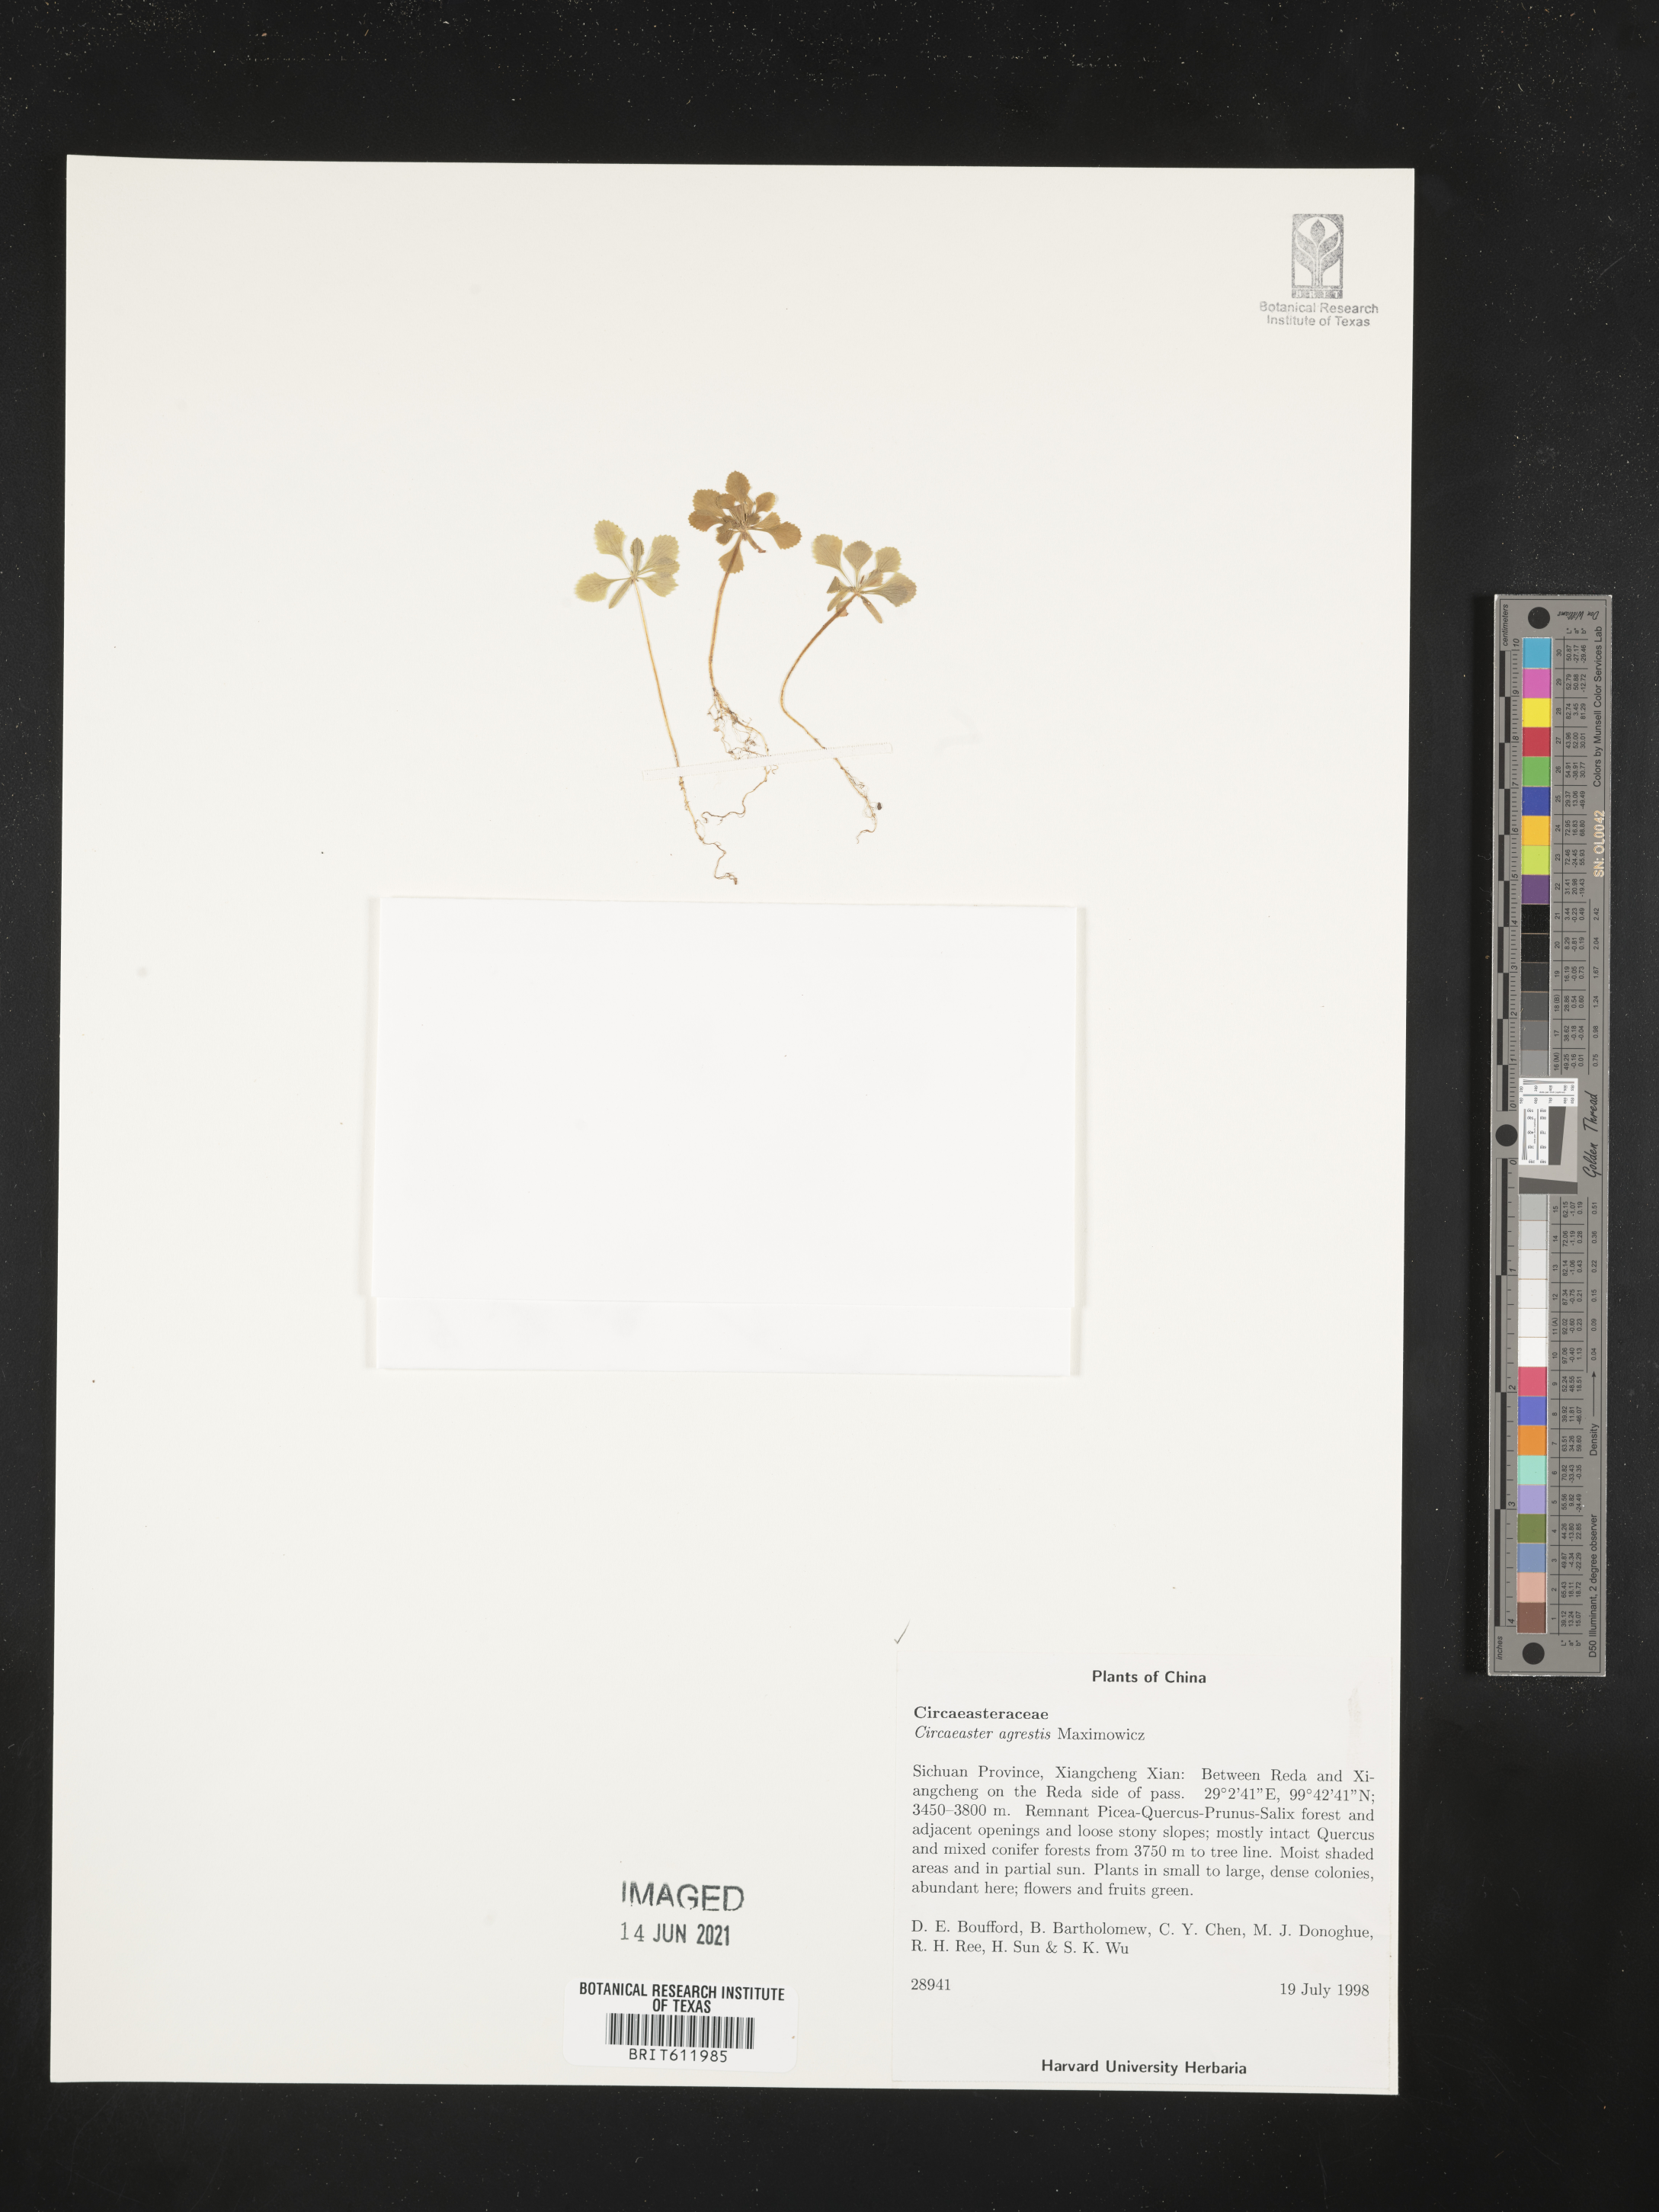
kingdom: Plantae
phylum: Tracheophyta
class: Magnoliopsida
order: Ranunculales
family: Circaeasteraceae
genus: Circaeaster
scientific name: Circaeaster agrestis
